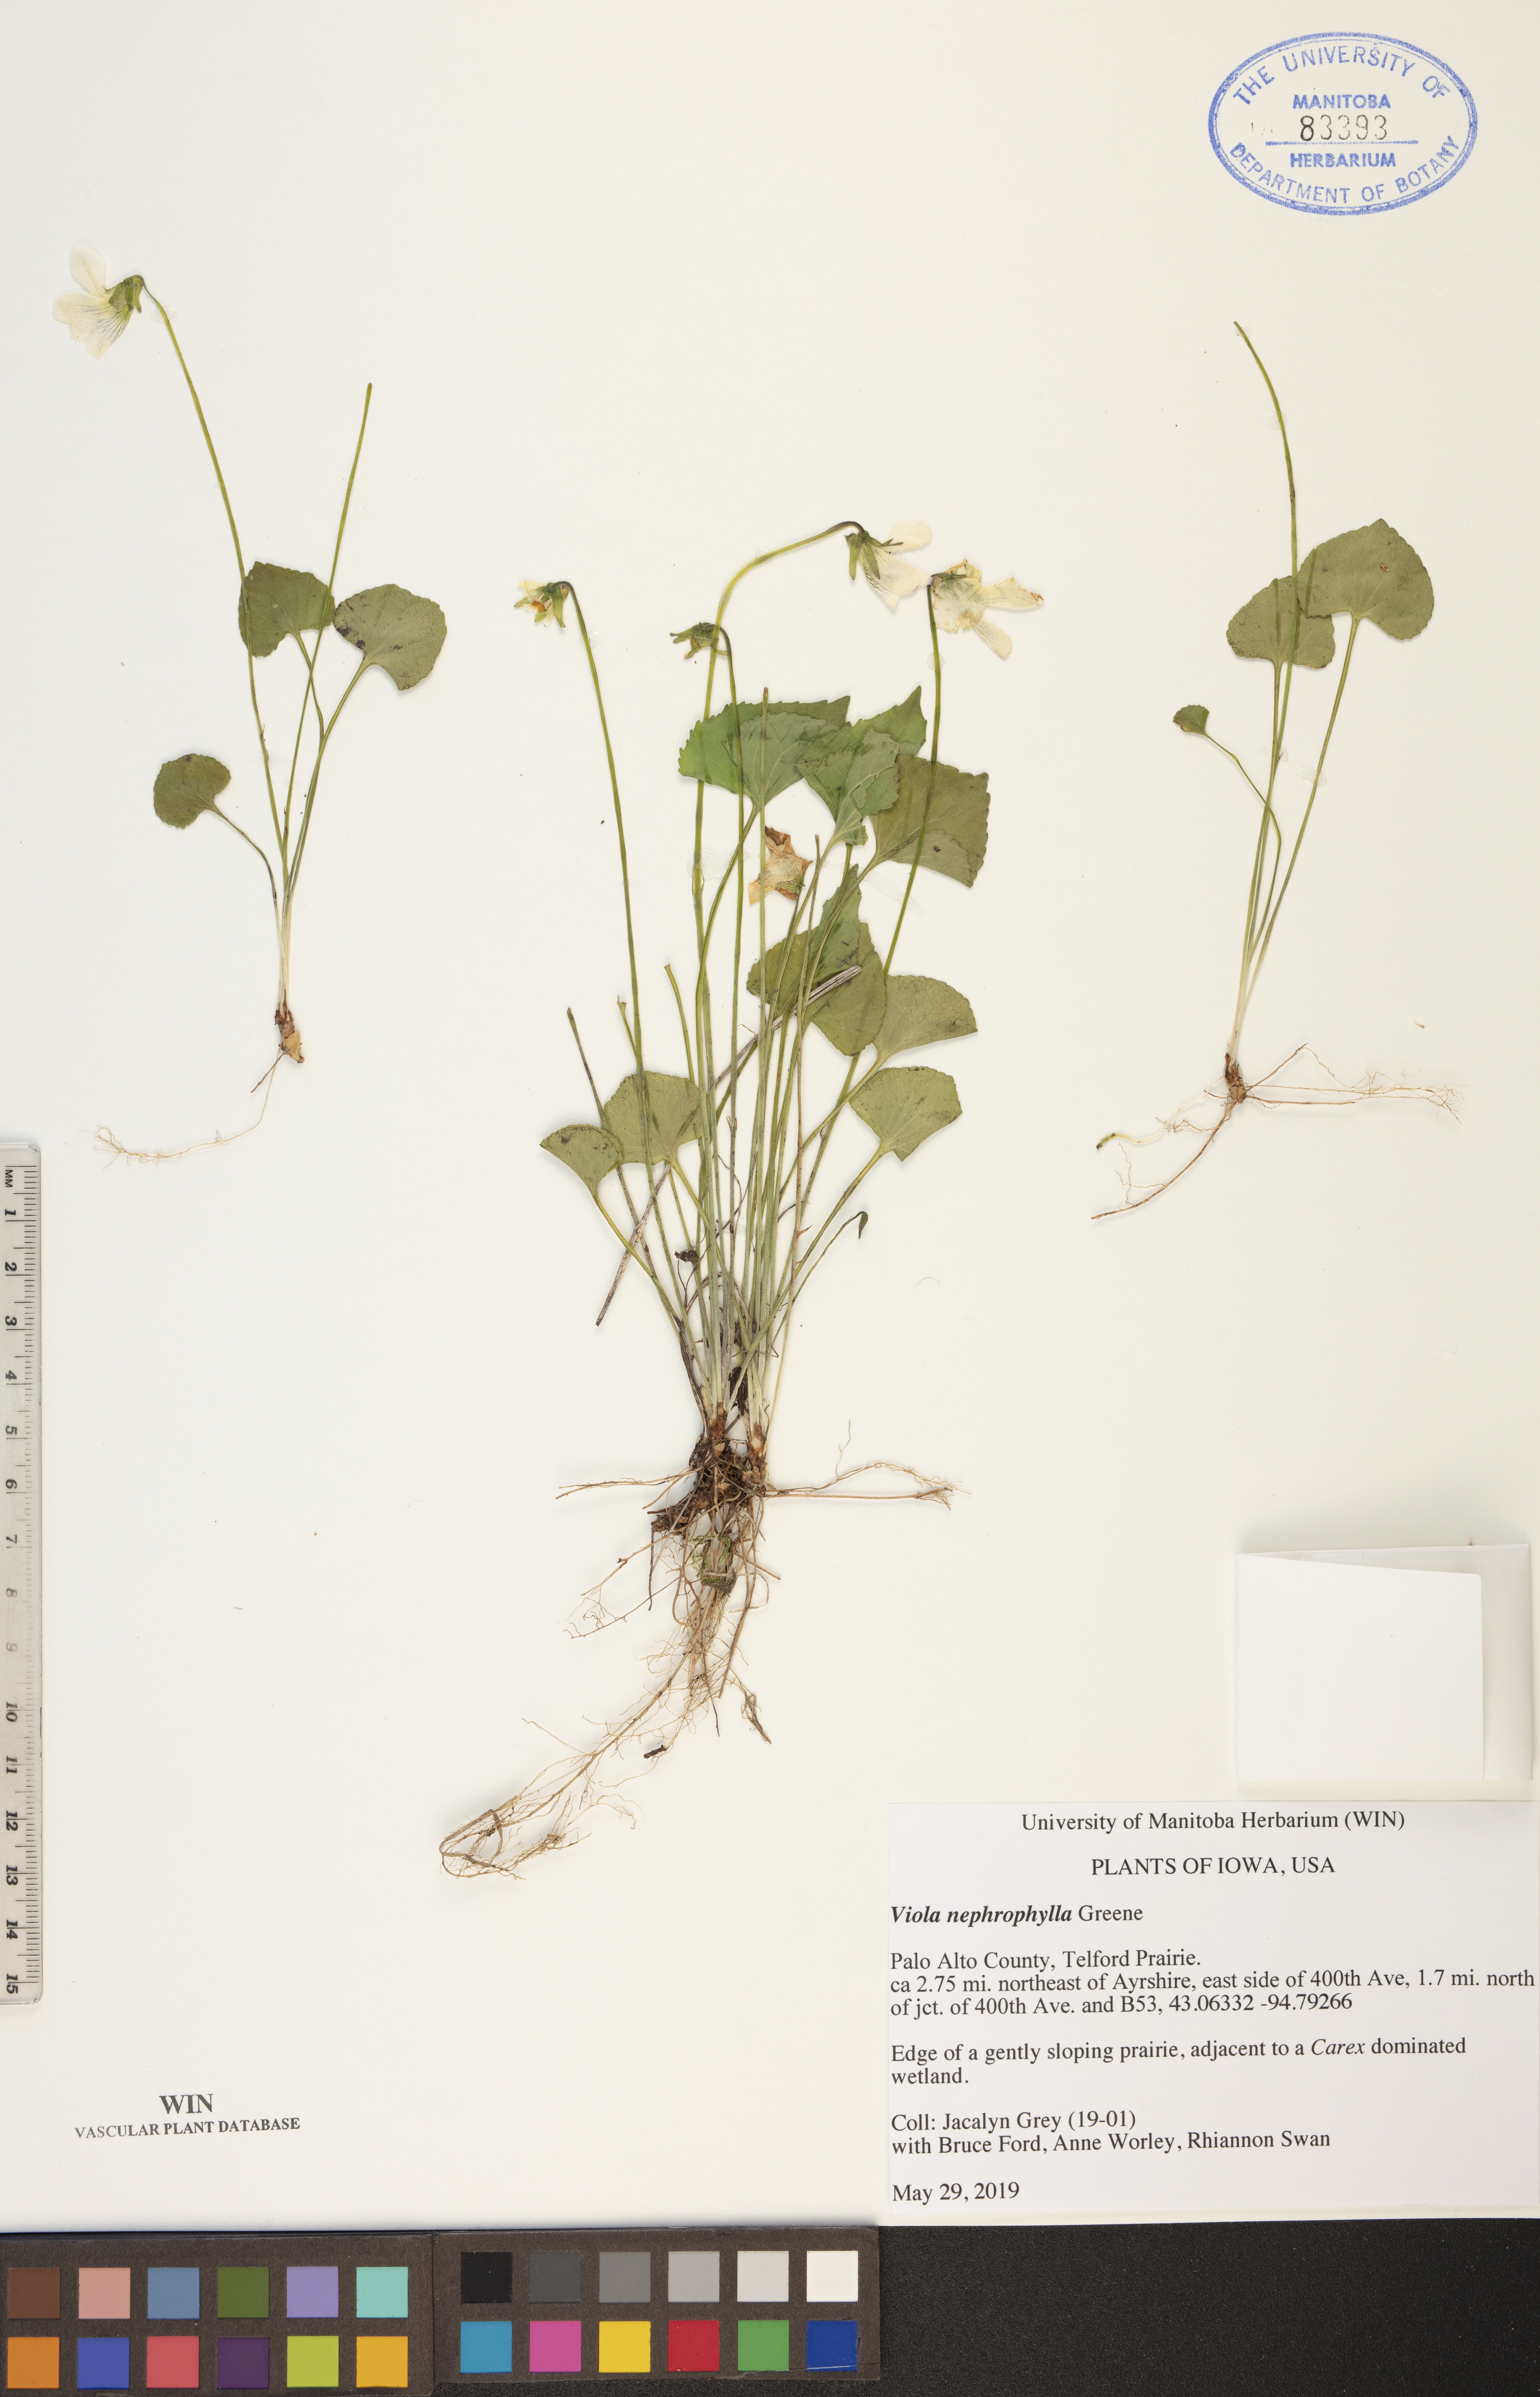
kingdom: Plantae
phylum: Tracheophyta
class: Magnoliopsida
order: Malpighiales
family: Violaceae
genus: Viola
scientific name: Viola nephrophylla
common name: Blue meadow violet
